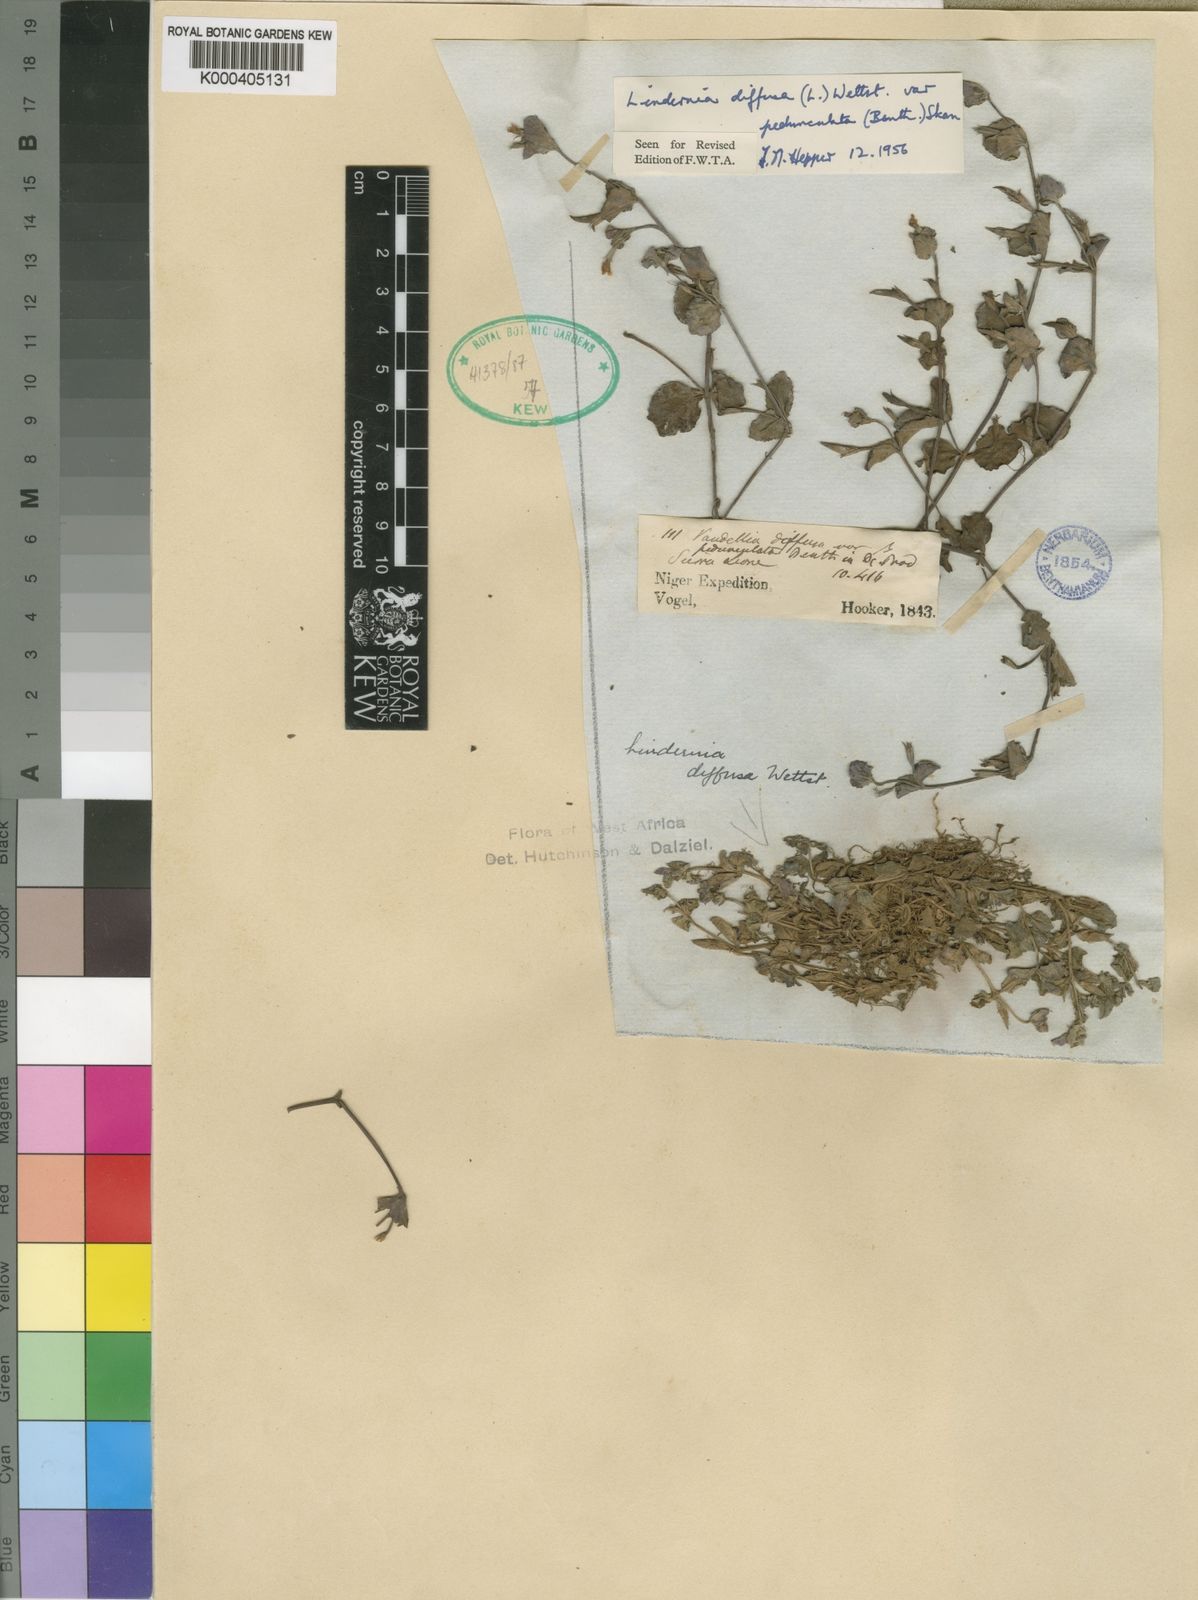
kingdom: Plantae
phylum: Tracheophyta
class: Magnoliopsida
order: Lamiales
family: Linderniaceae
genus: Vandellia
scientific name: Vandellia diffusa
